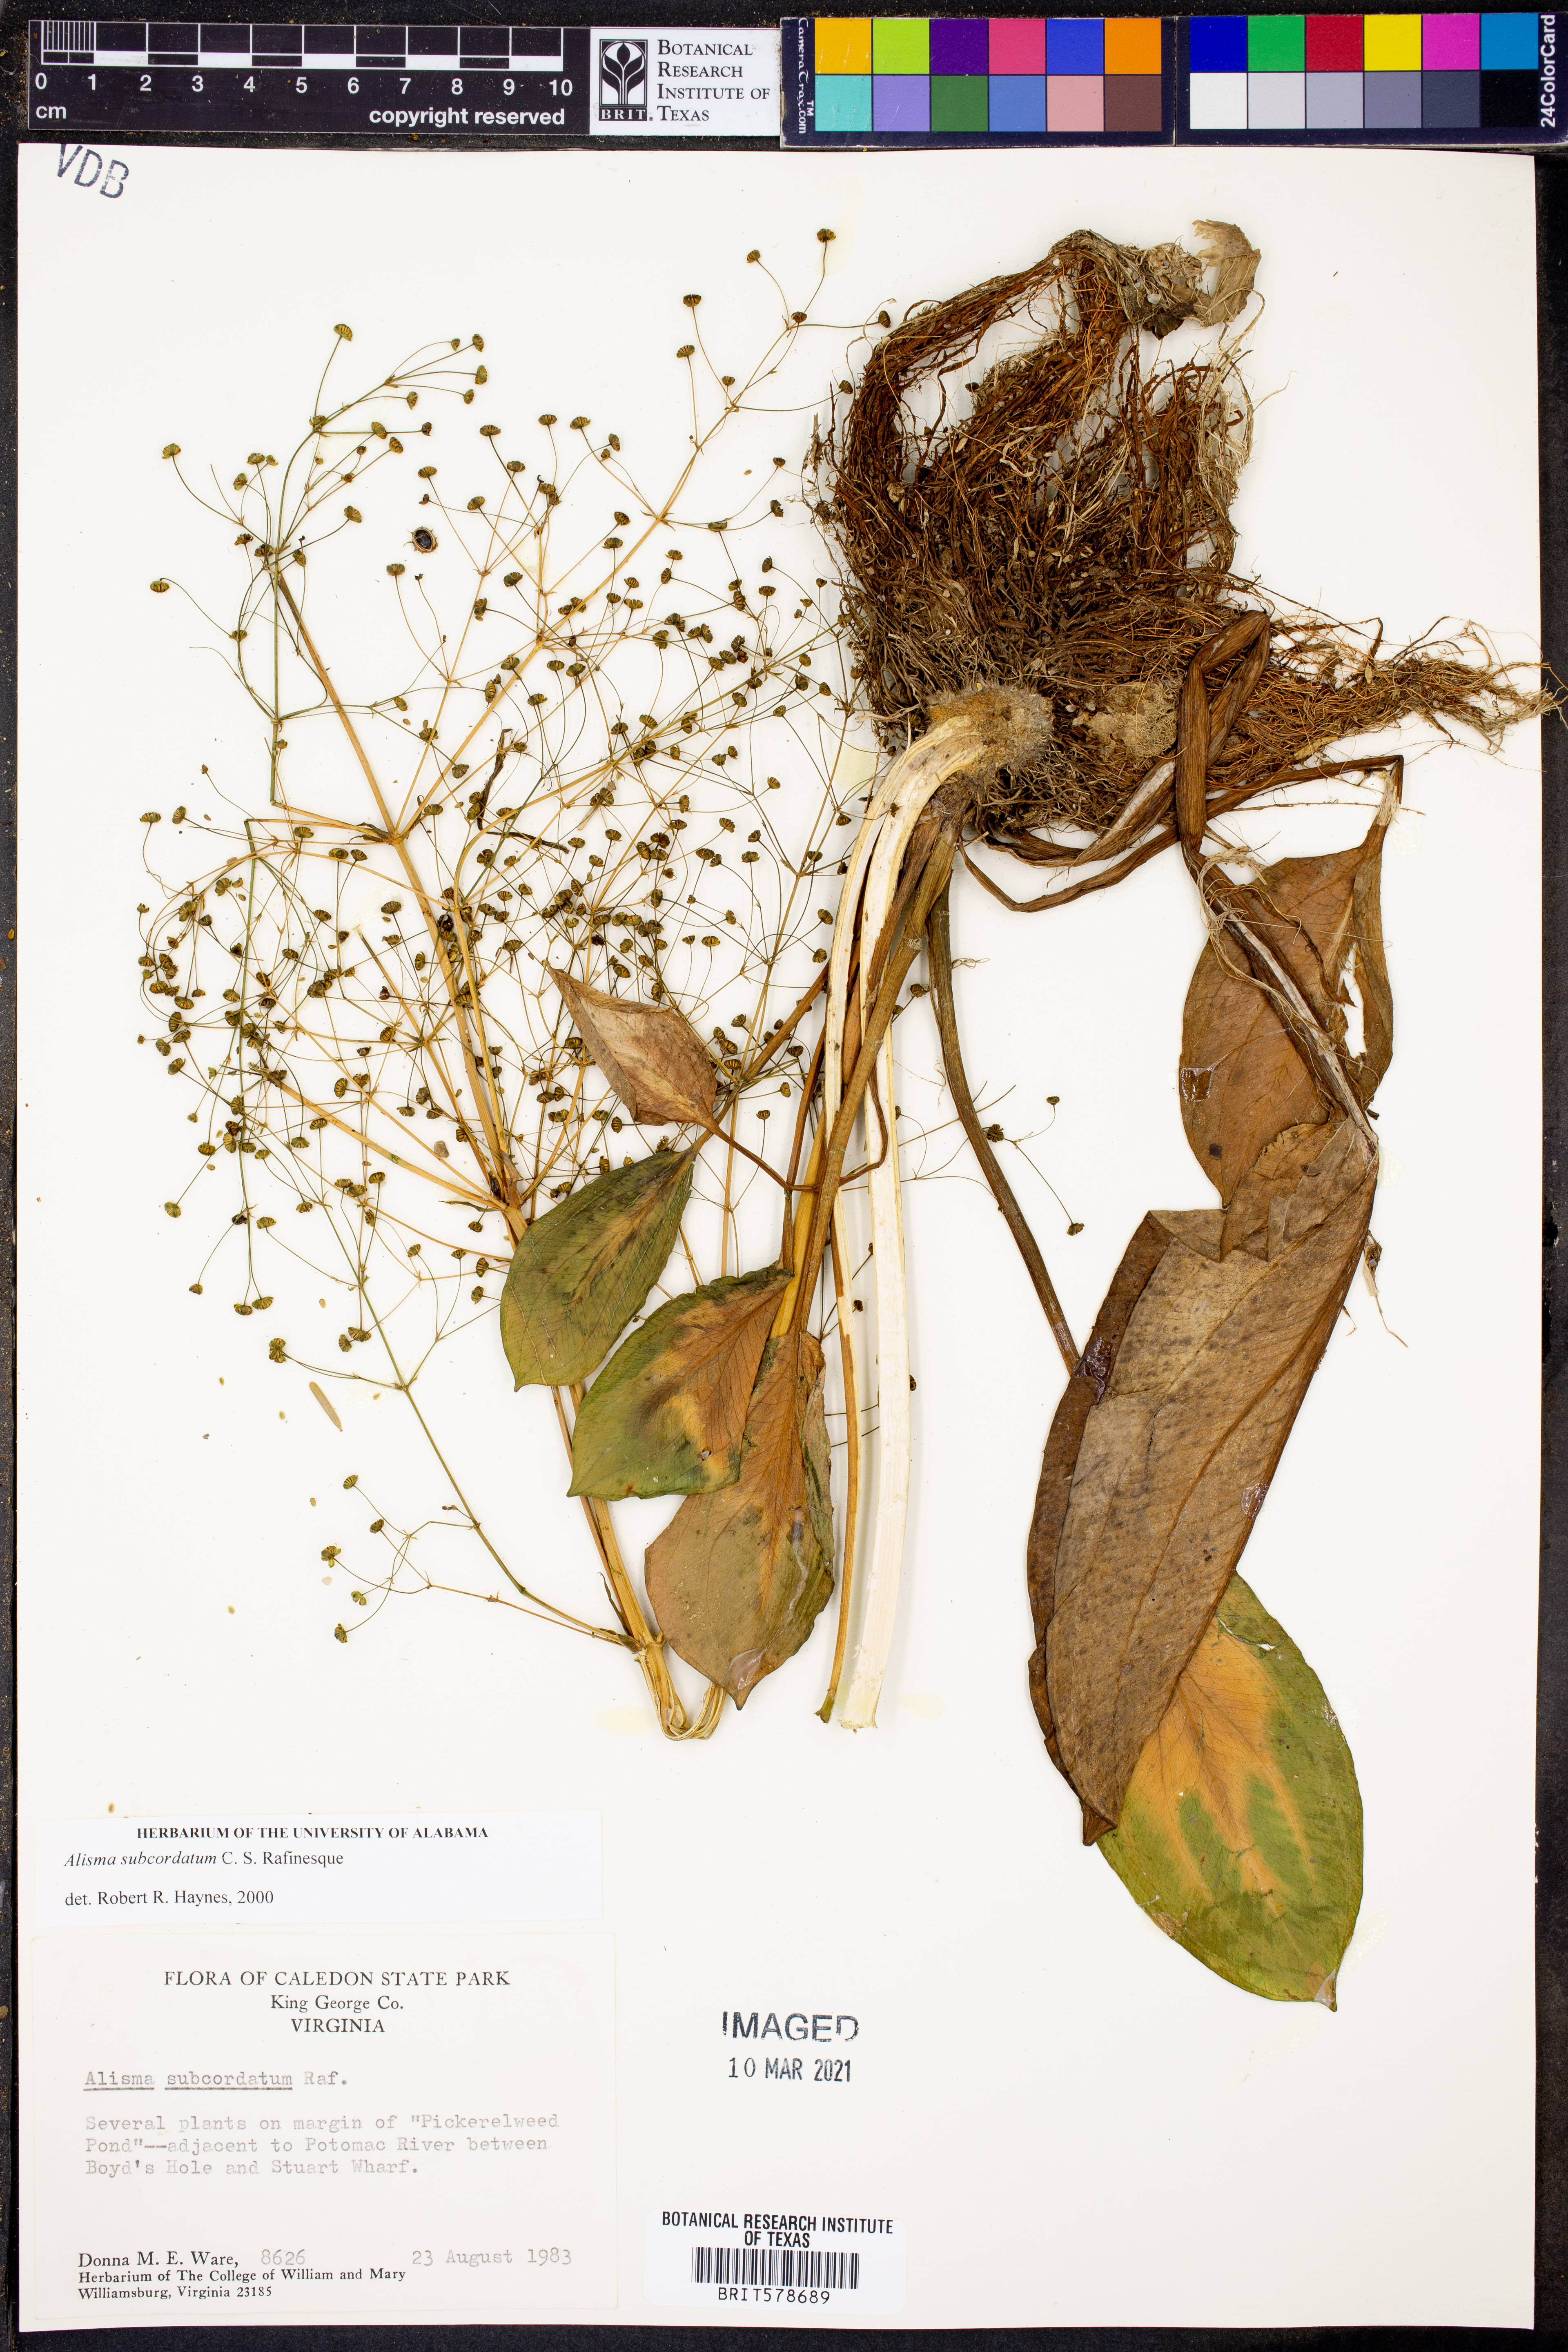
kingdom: Plantae
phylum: Tracheophyta
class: Liliopsida
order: Alismatales
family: Alismataceae
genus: Alisma
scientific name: Alisma subcordatum
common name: Southern water-plantain
